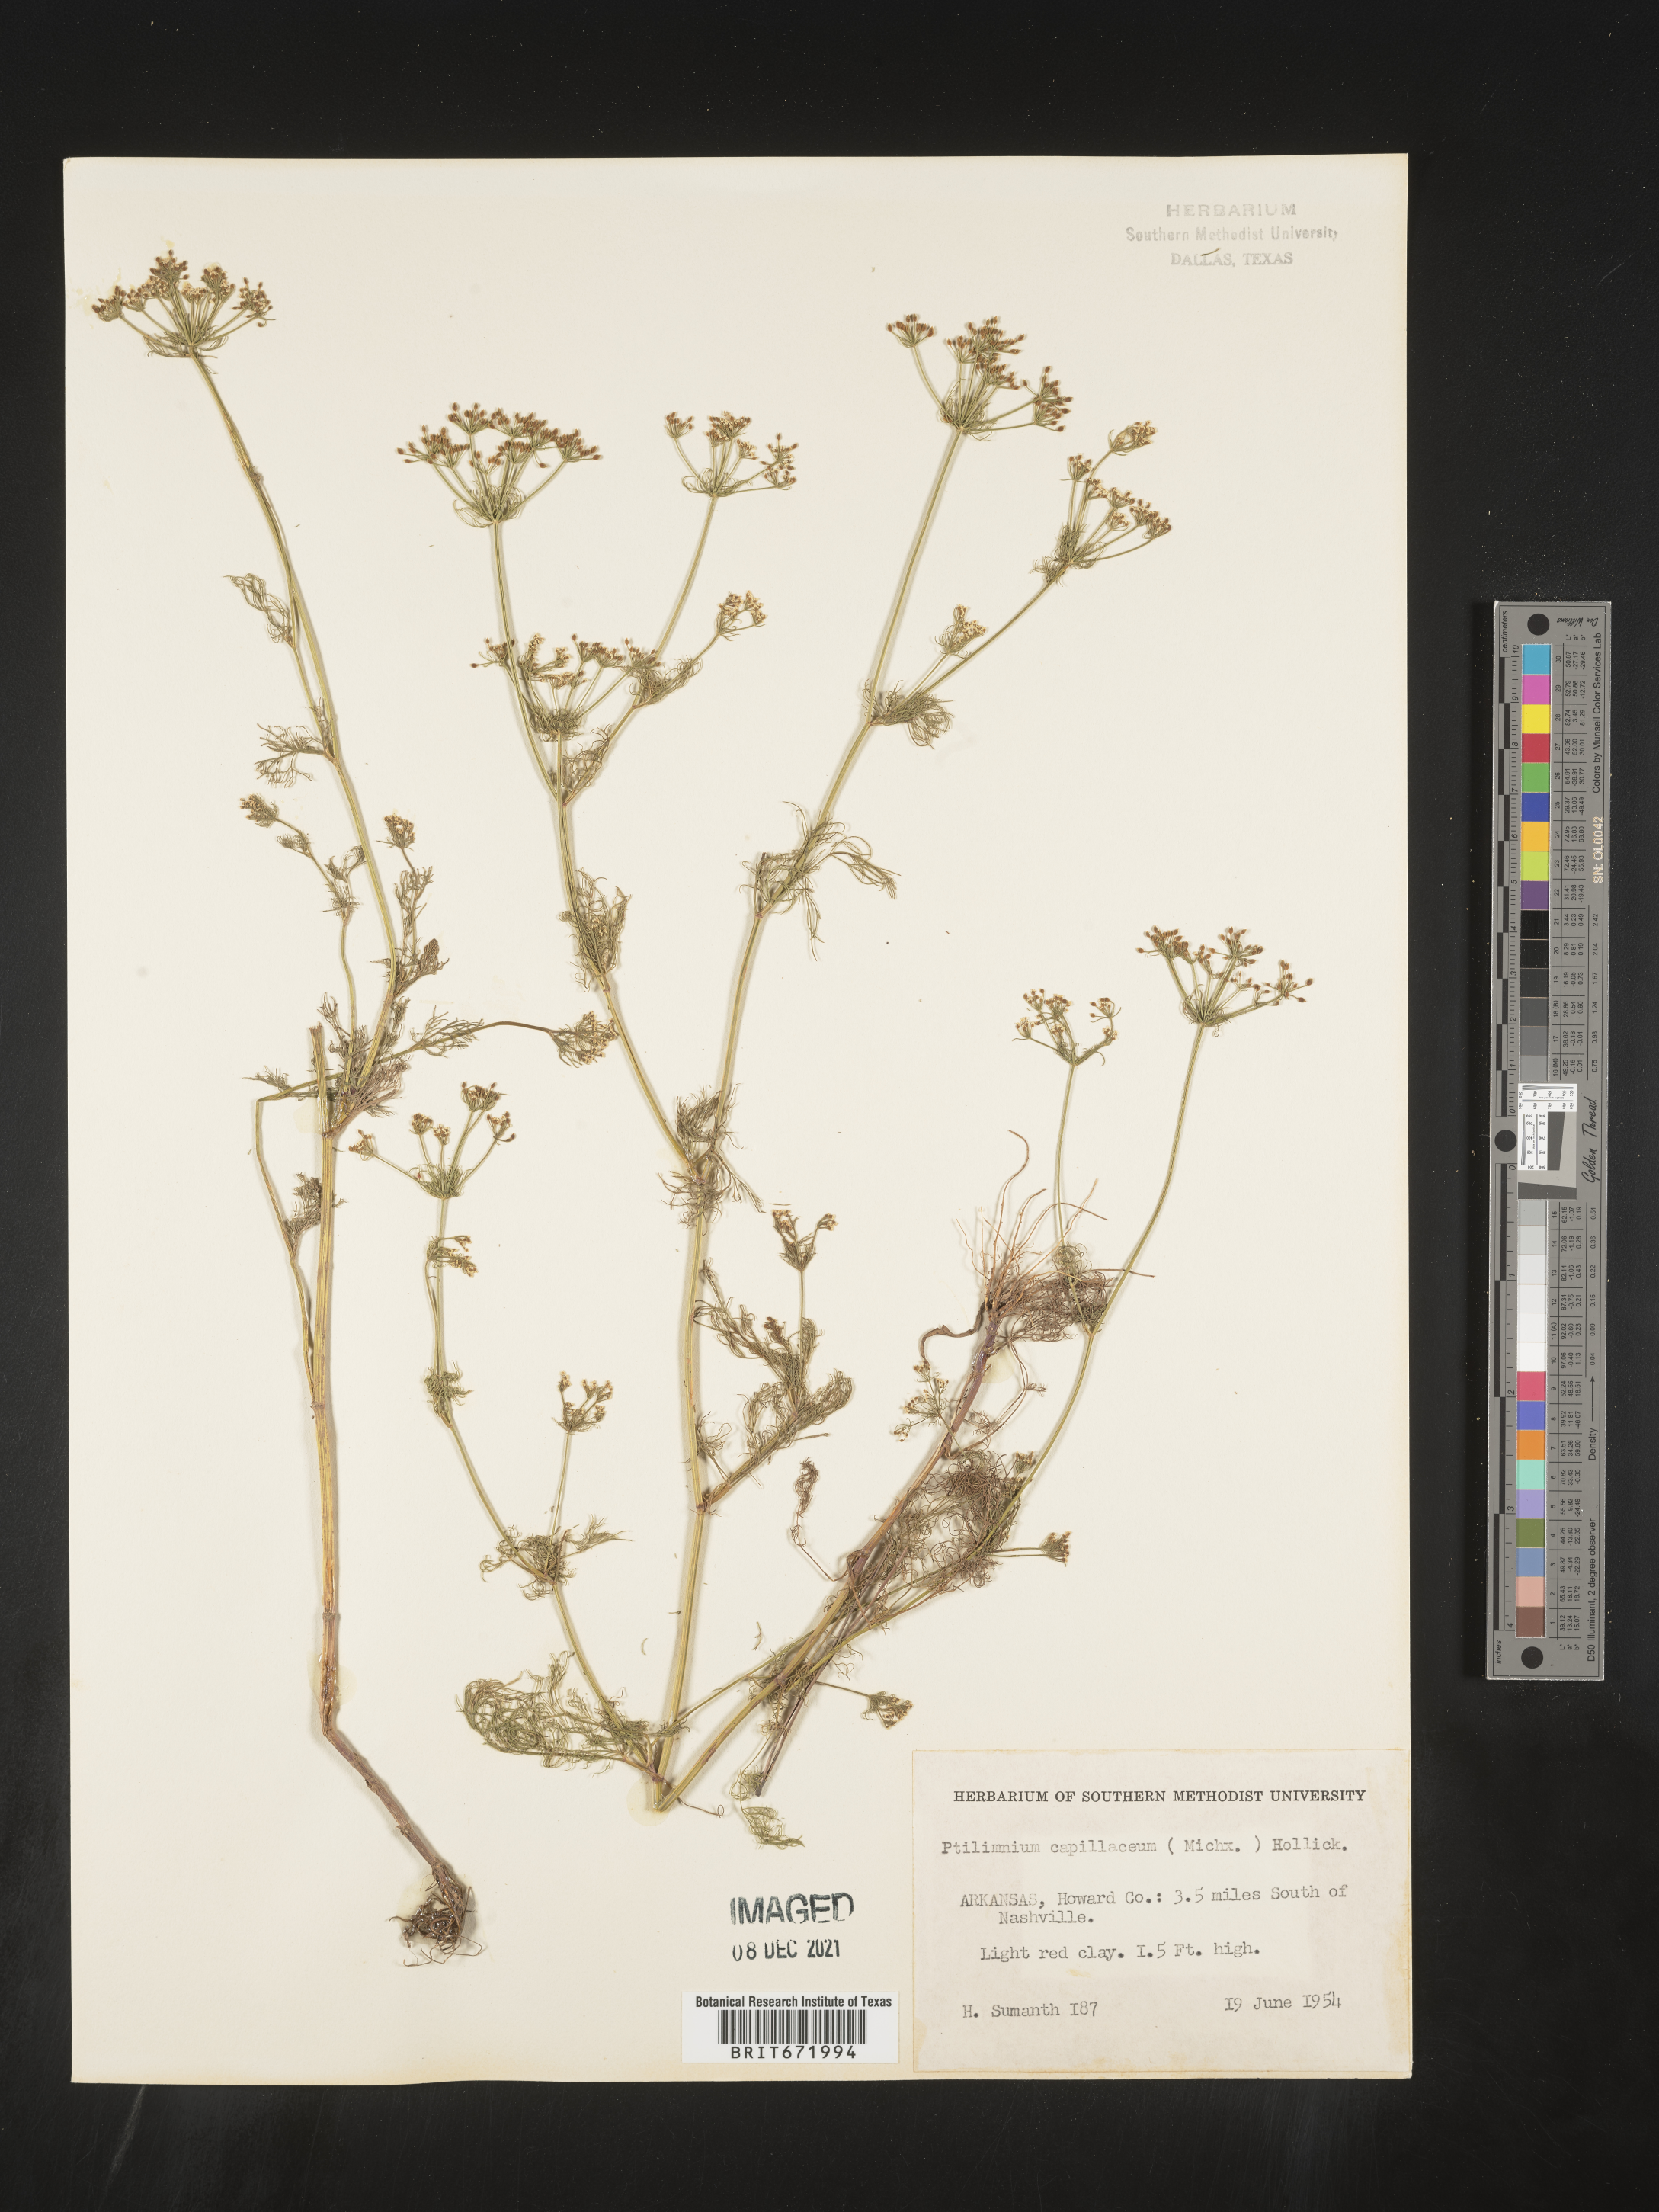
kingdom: Plantae
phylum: Tracheophyta
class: Magnoliopsida
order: Apiales
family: Apiaceae
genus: Ptilimnium
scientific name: Ptilimnium capillaceum
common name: Herbwilliam
